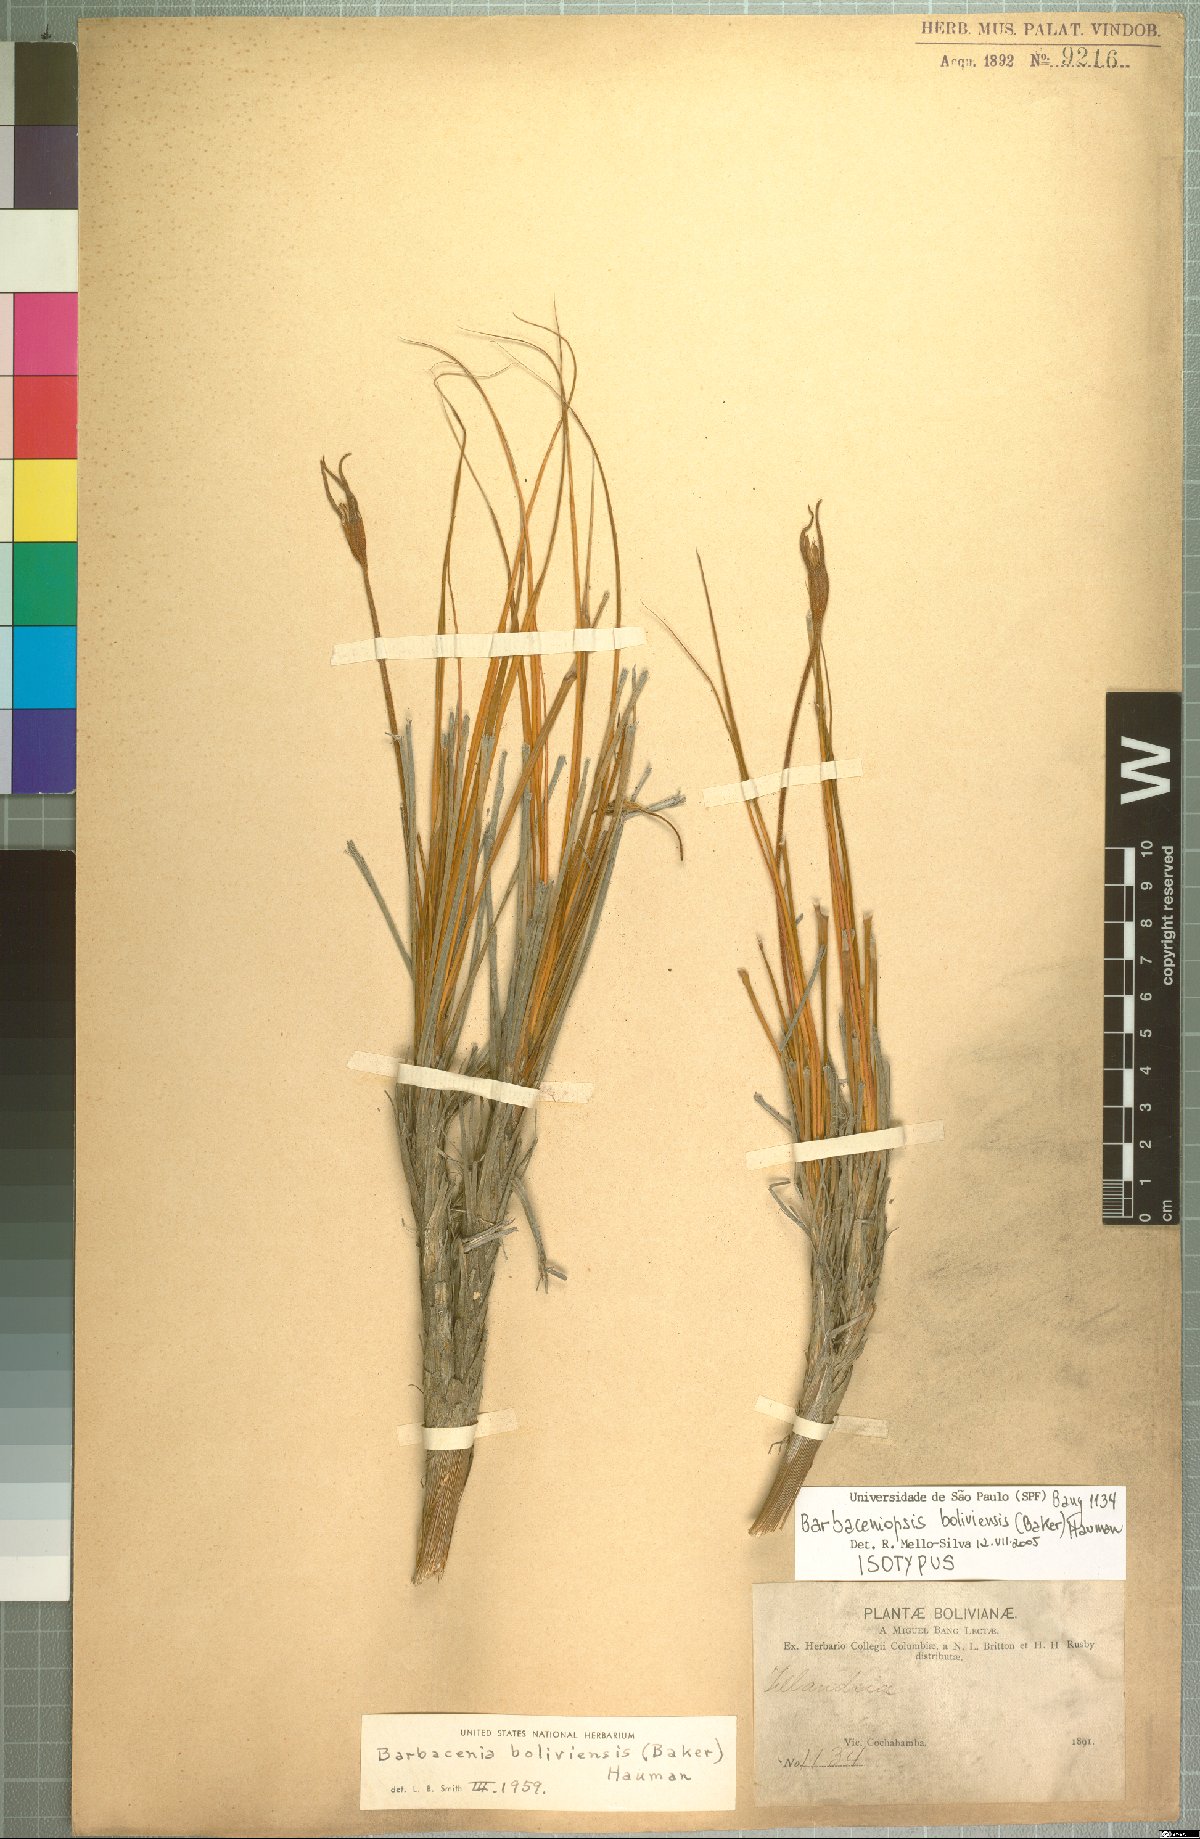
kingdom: Plantae
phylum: Tracheophyta
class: Liliopsida
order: Pandanales
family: Velloziaceae
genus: Barbaceniopsis
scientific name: Barbaceniopsis boliviensis
